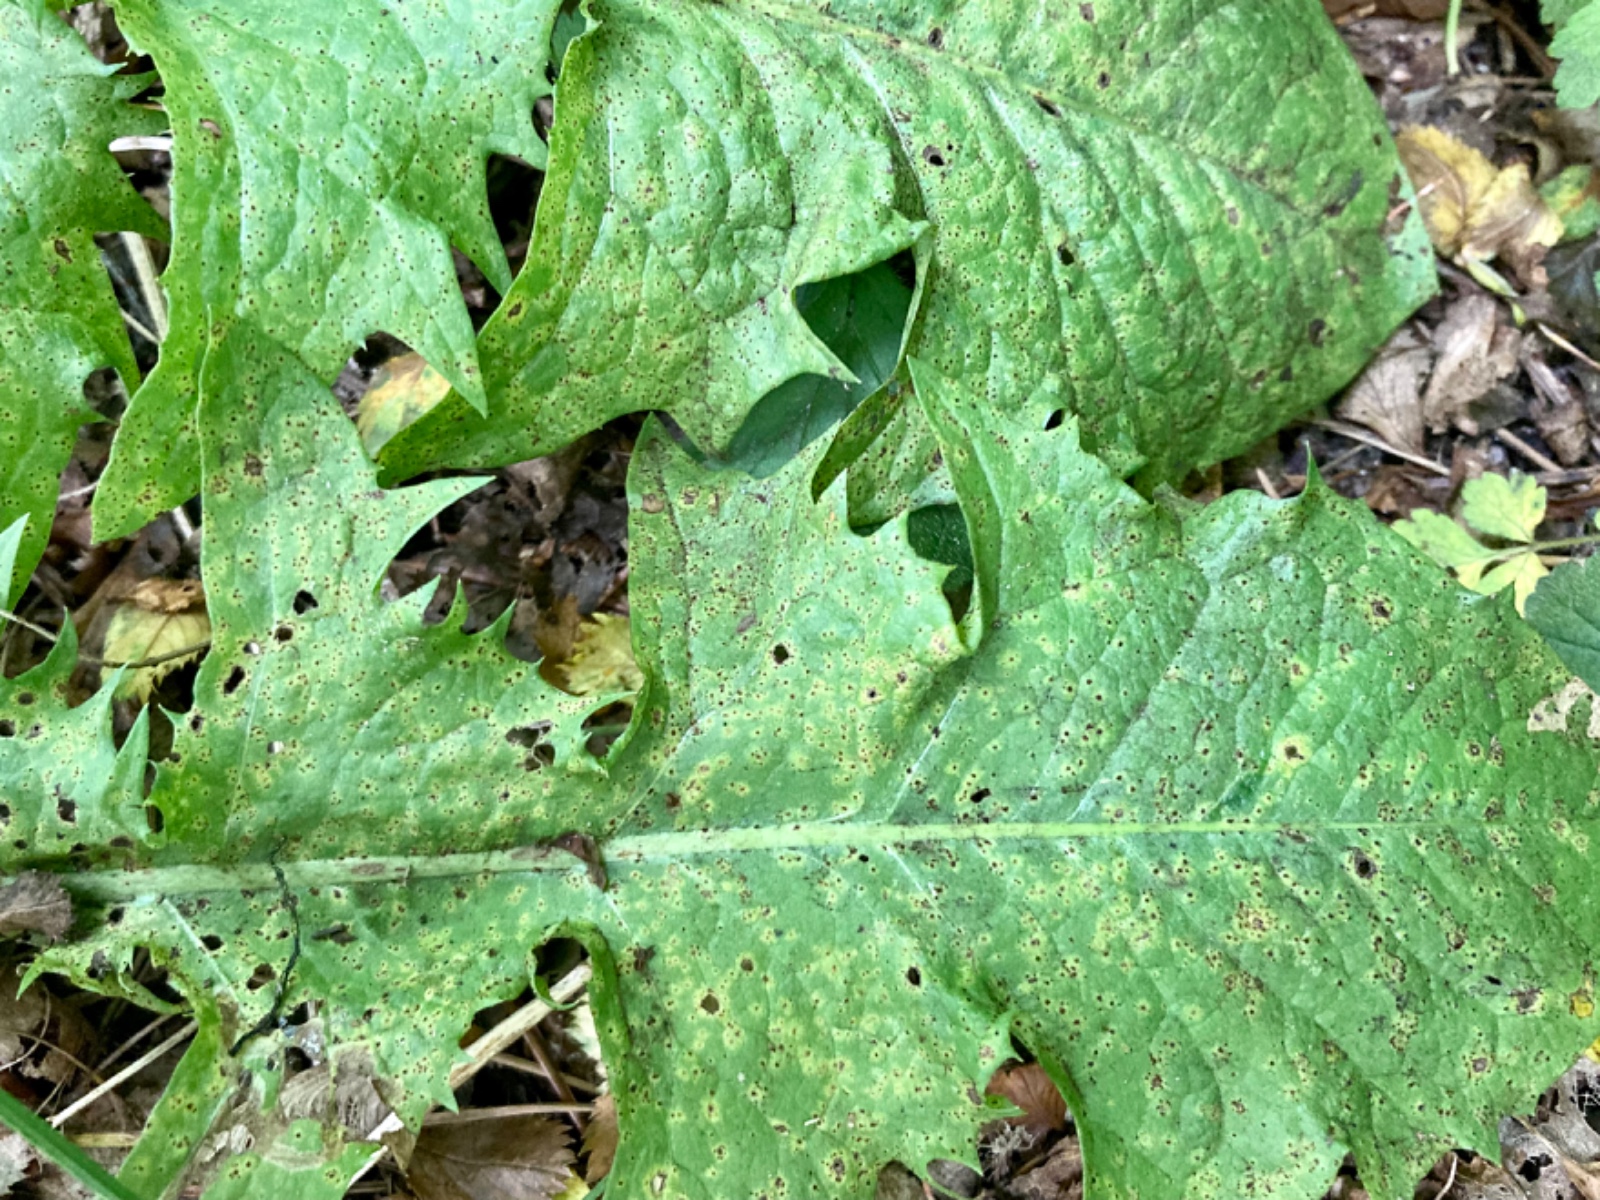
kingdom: Fungi
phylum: Basidiomycota
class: Pucciniomycetes
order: Pucciniales
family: Pucciniaceae
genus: Puccinia
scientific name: Puccinia hieracii
